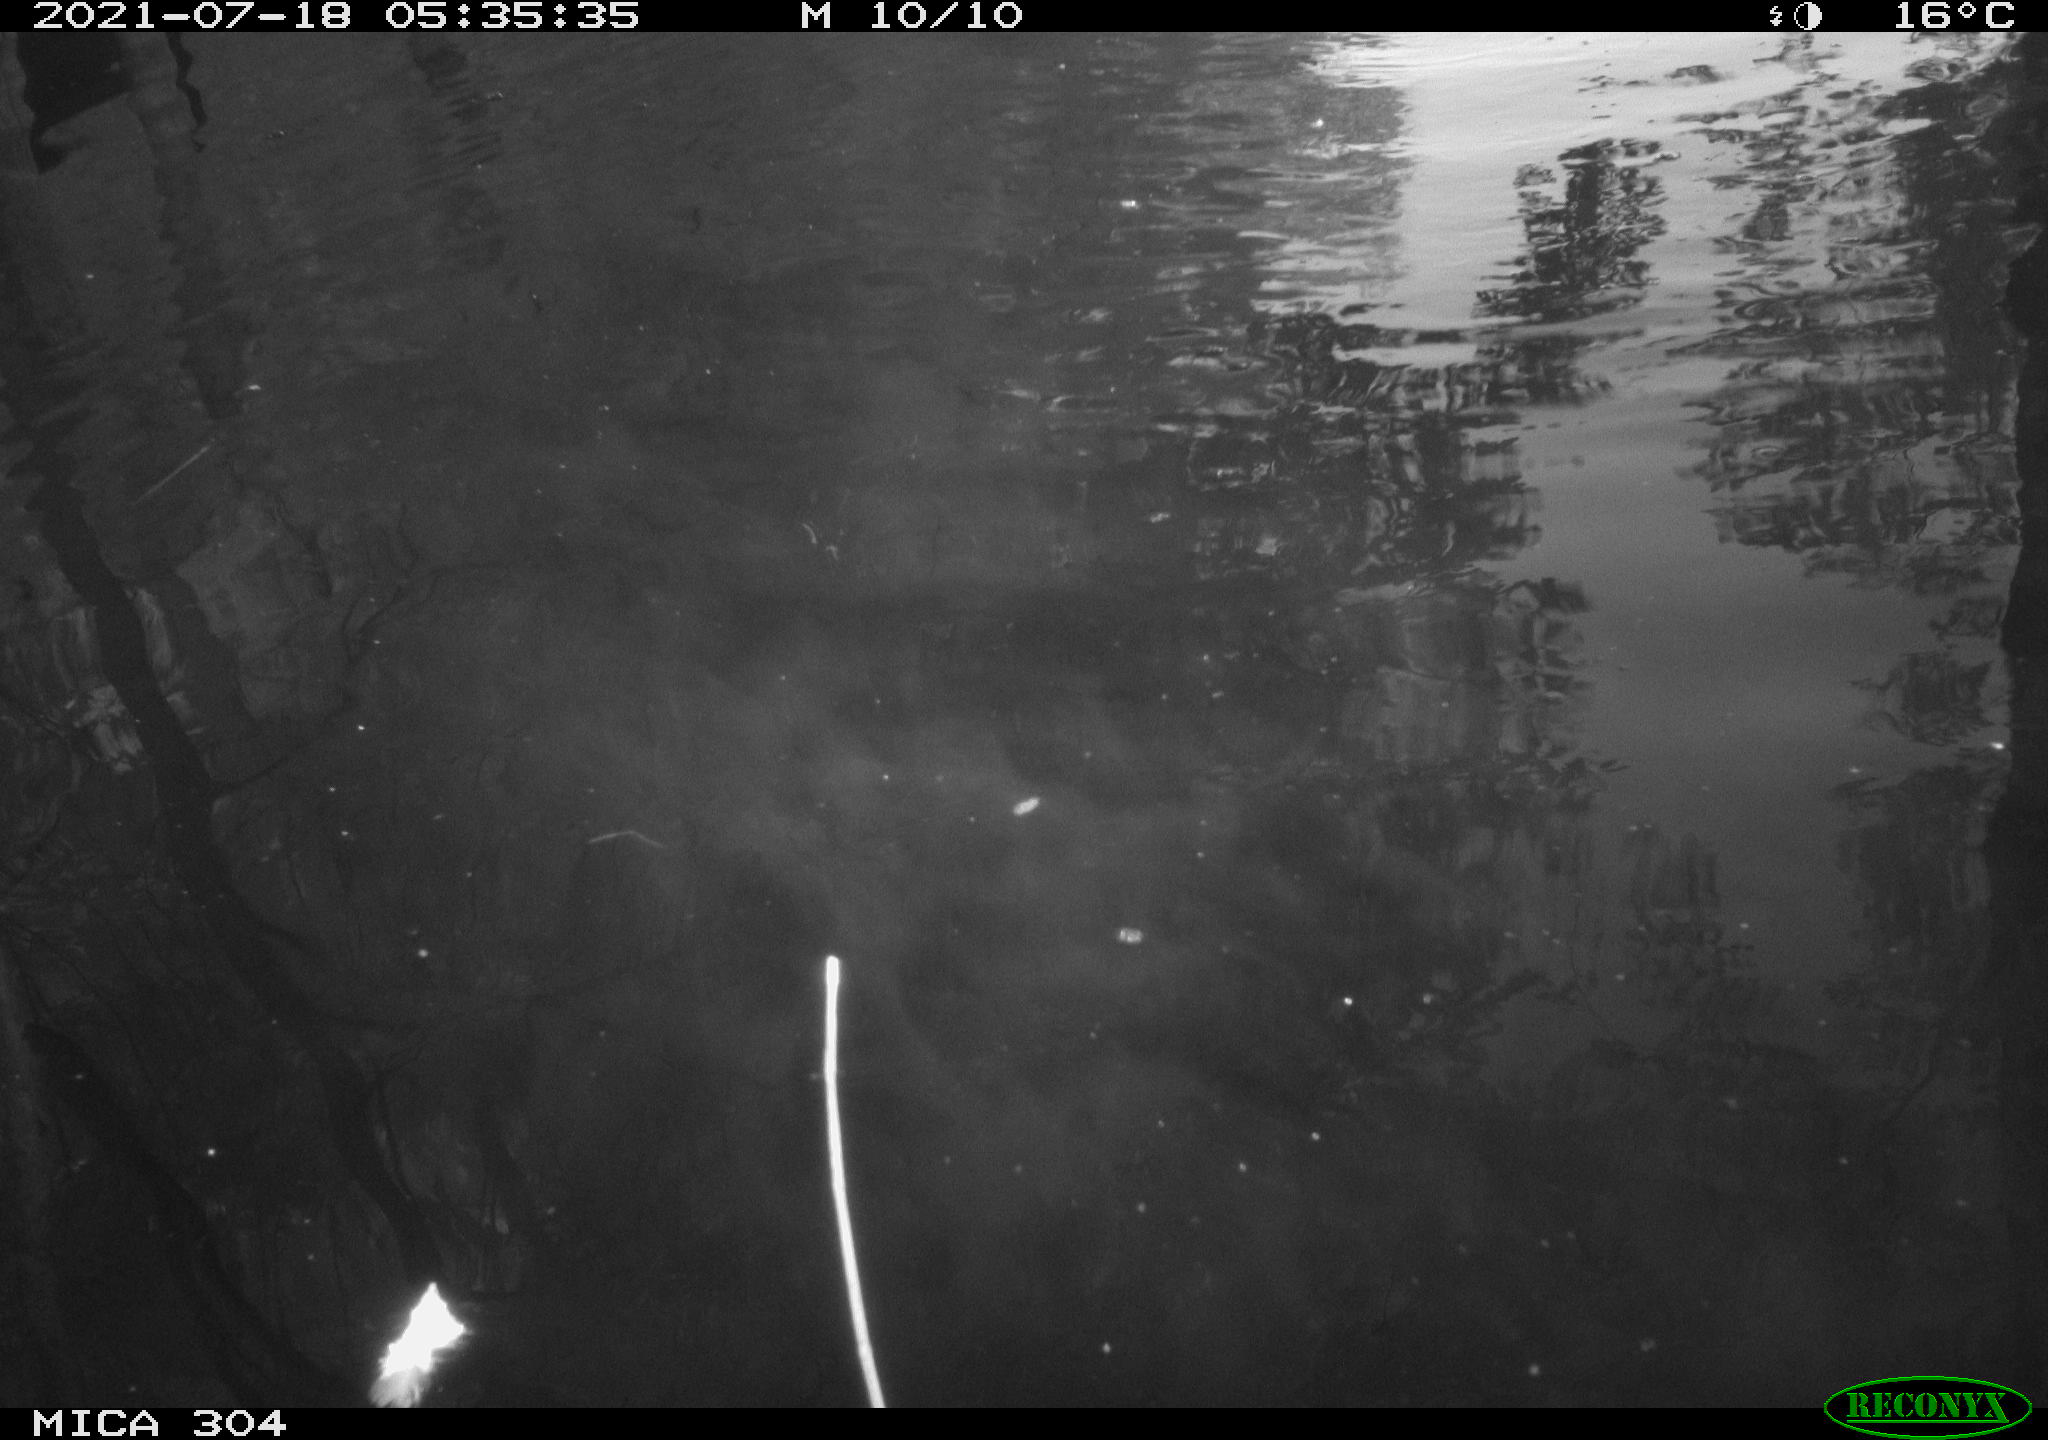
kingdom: Animalia
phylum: Chordata
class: Aves
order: Anseriformes
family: Anatidae
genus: Anas
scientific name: Anas platyrhynchos
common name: Mallard
